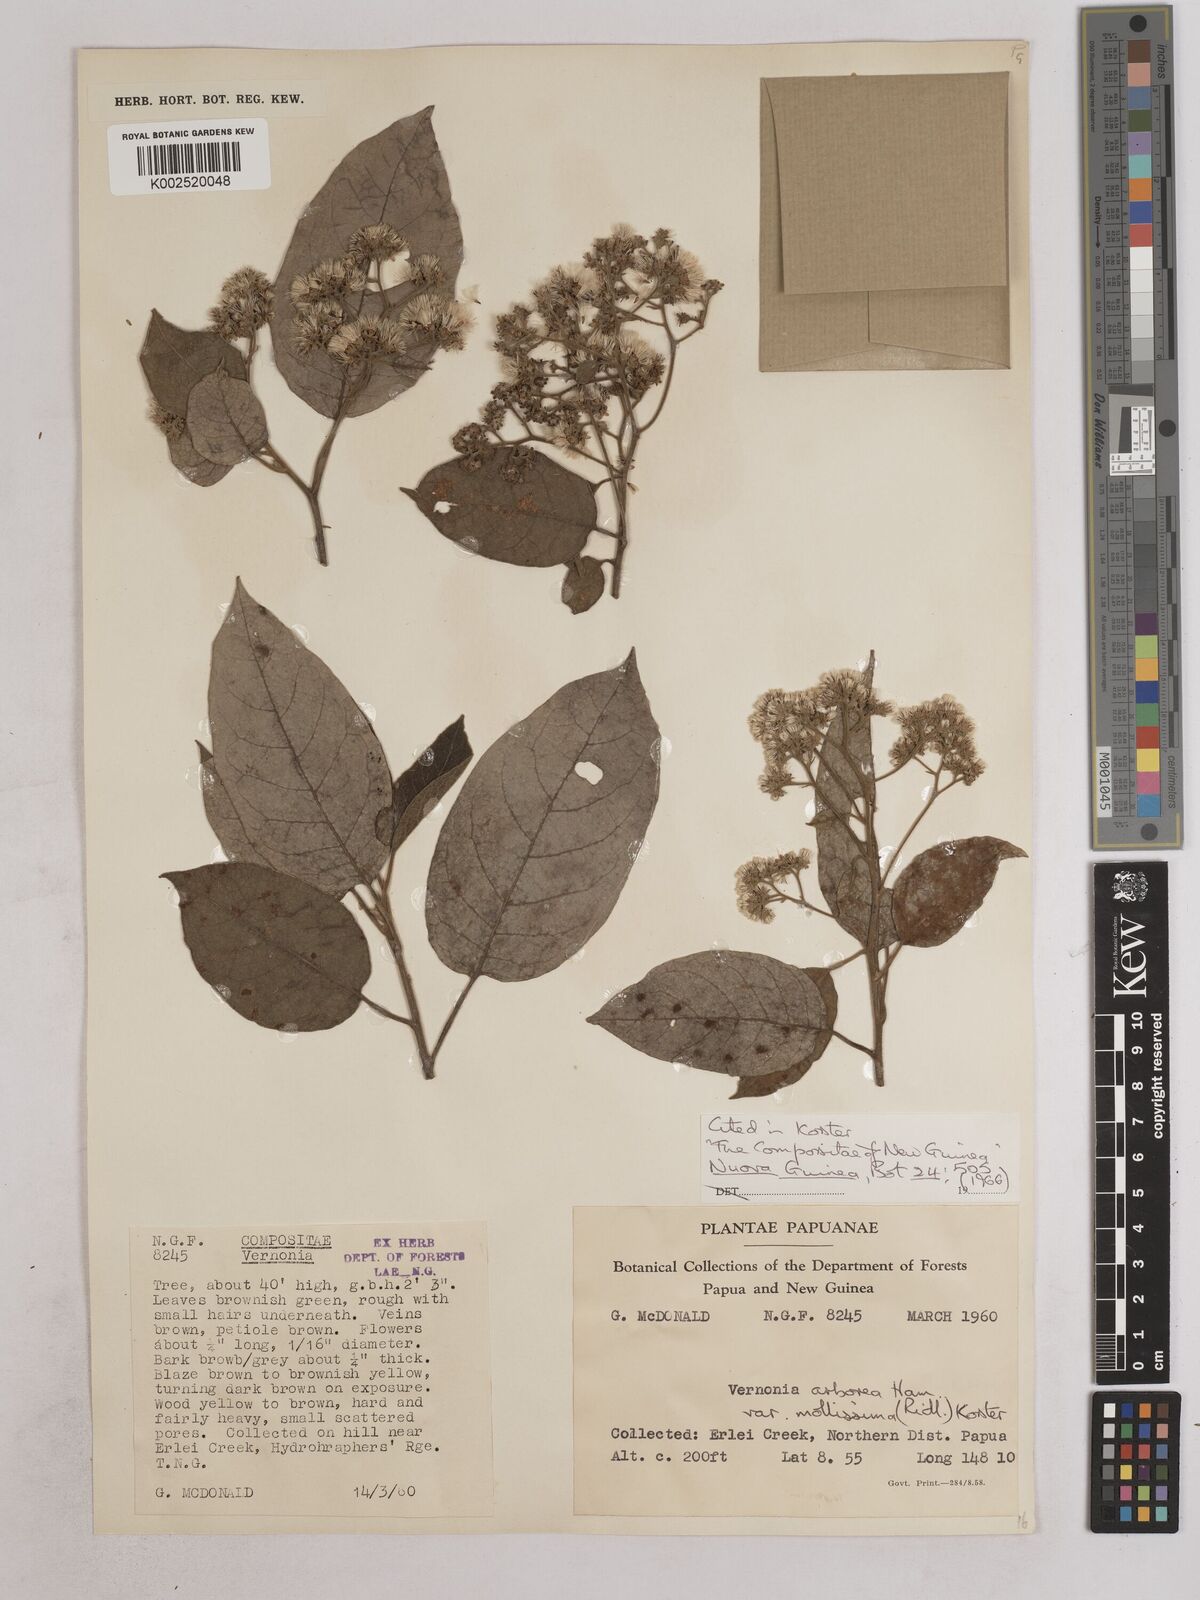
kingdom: Plantae
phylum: Tracheophyta
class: Magnoliopsida
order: Asterales
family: Asteraceae
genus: Strobocalyx
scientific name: Strobocalyx arborea
